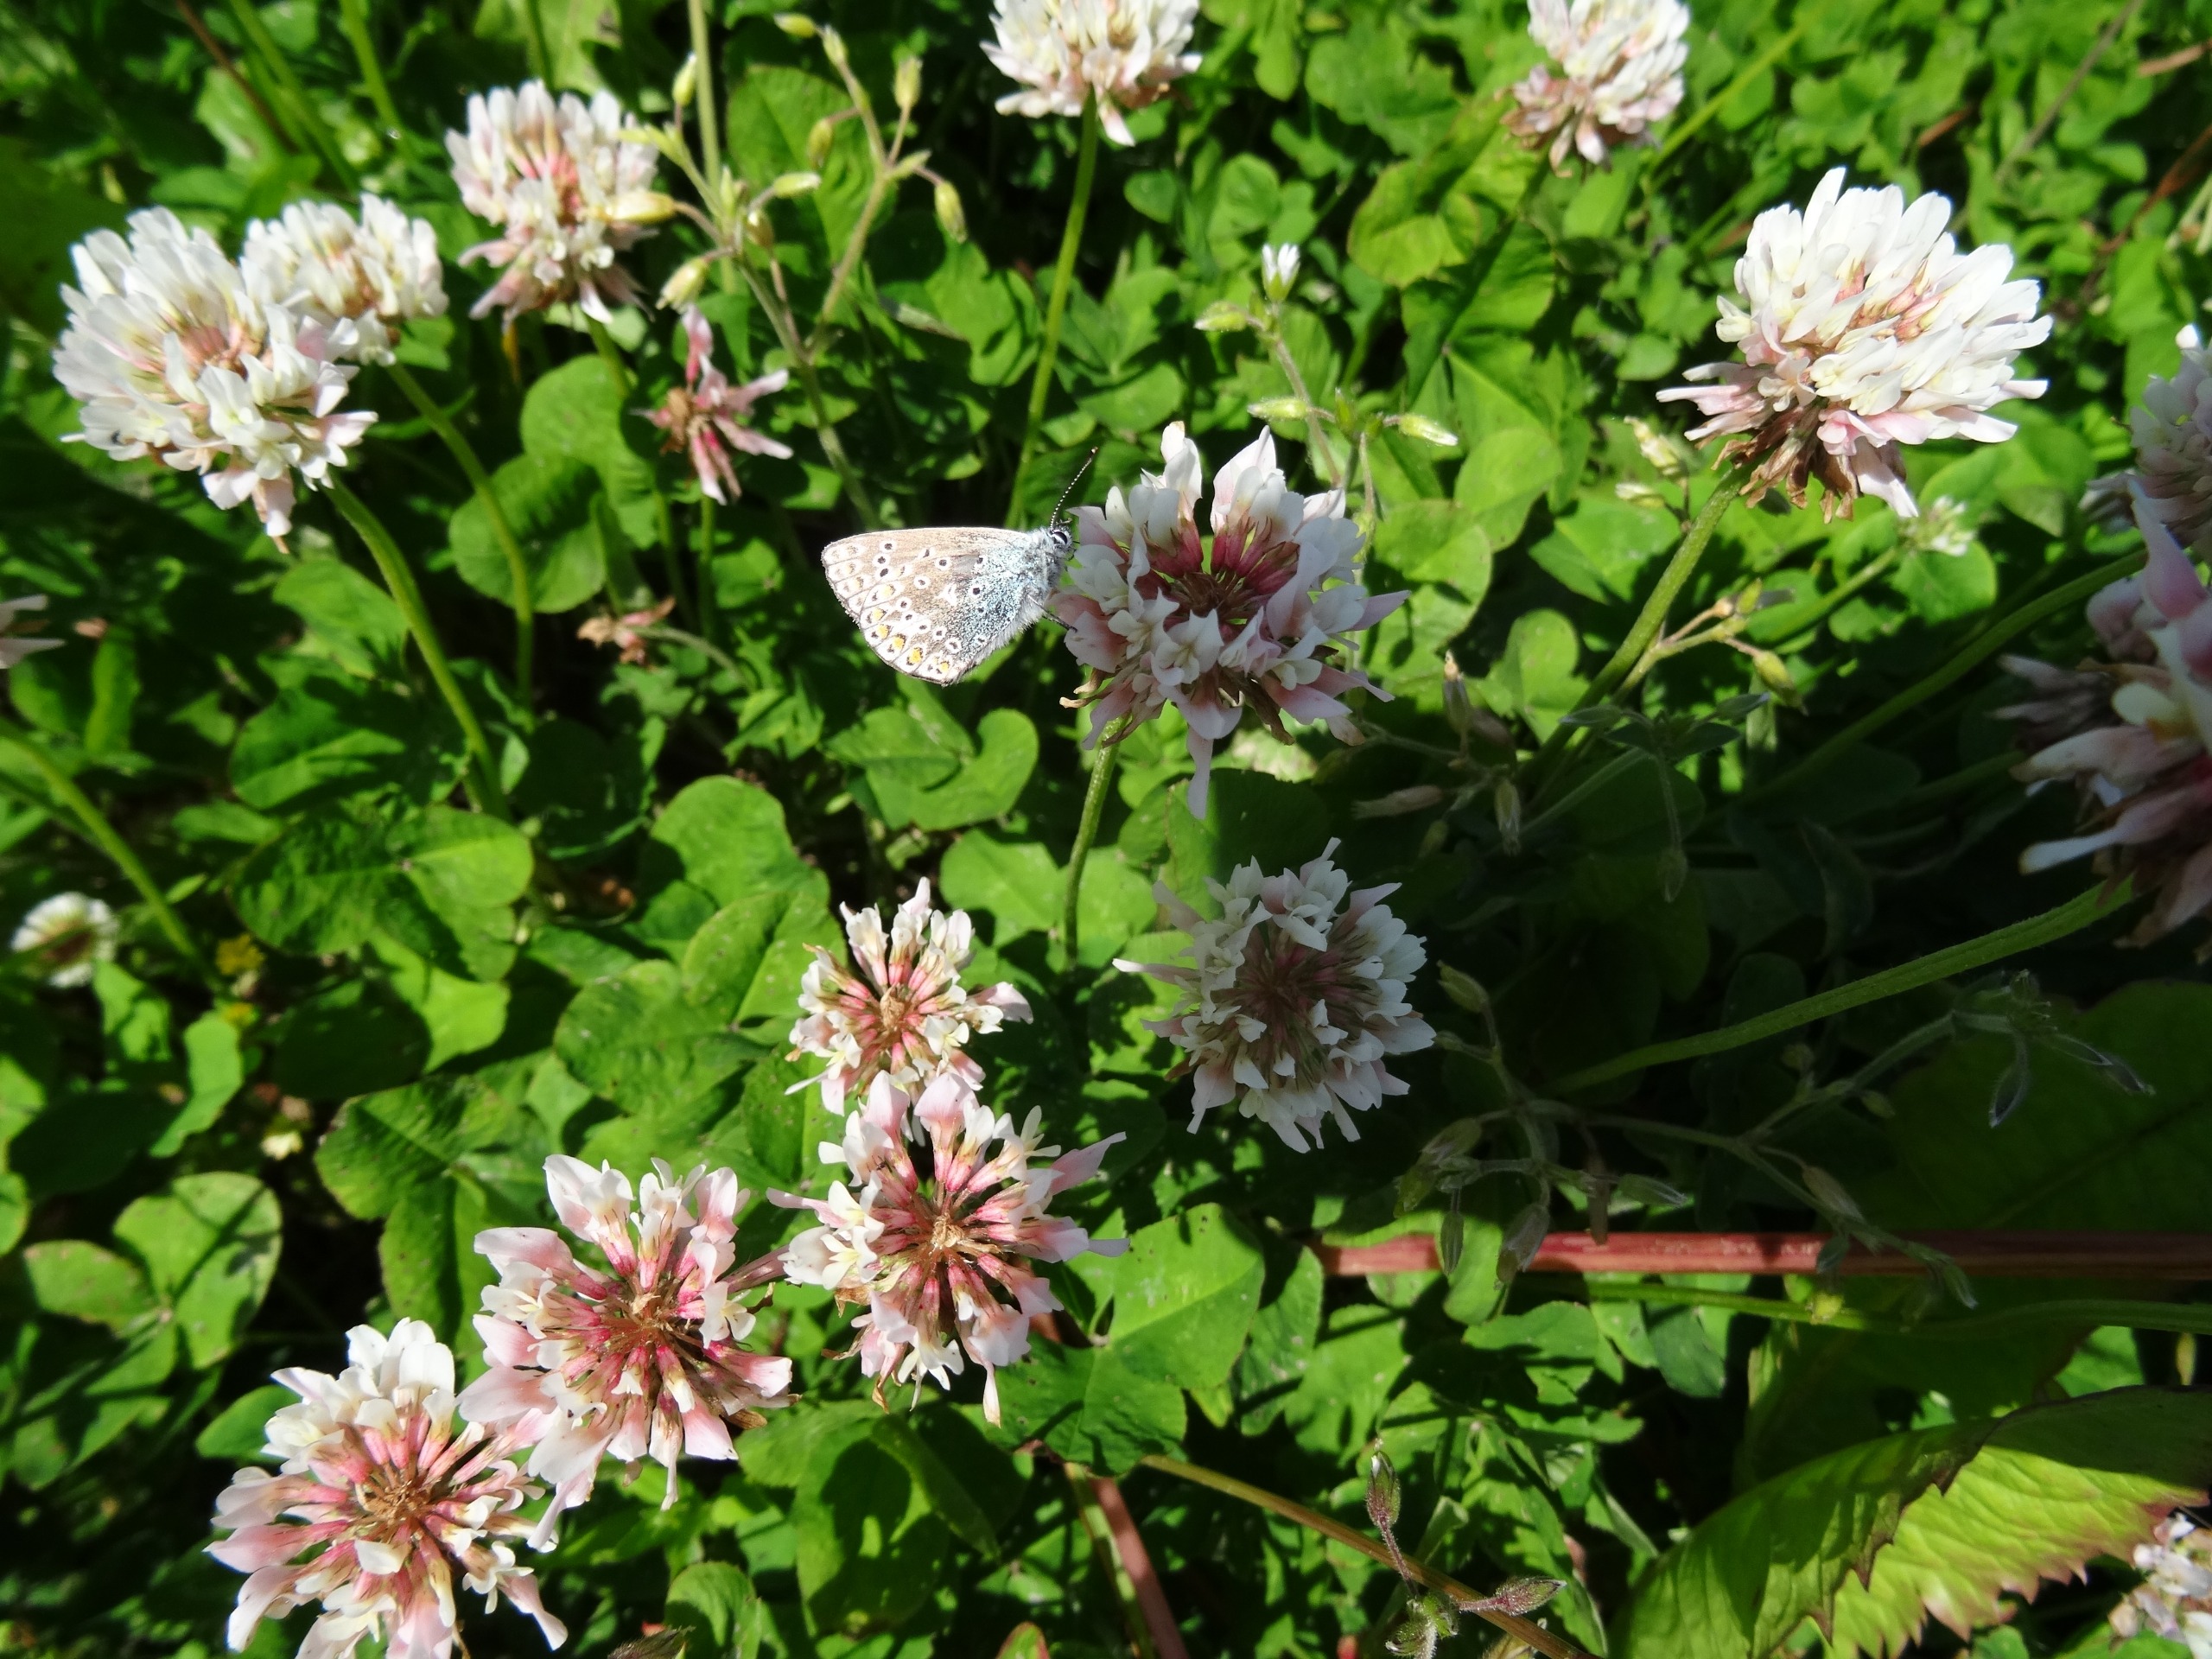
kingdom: Animalia
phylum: Arthropoda
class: Insecta
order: Lepidoptera
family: Lycaenidae
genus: Polyommatus
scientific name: Polyommatus icarus
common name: Almindelig blåfugl
